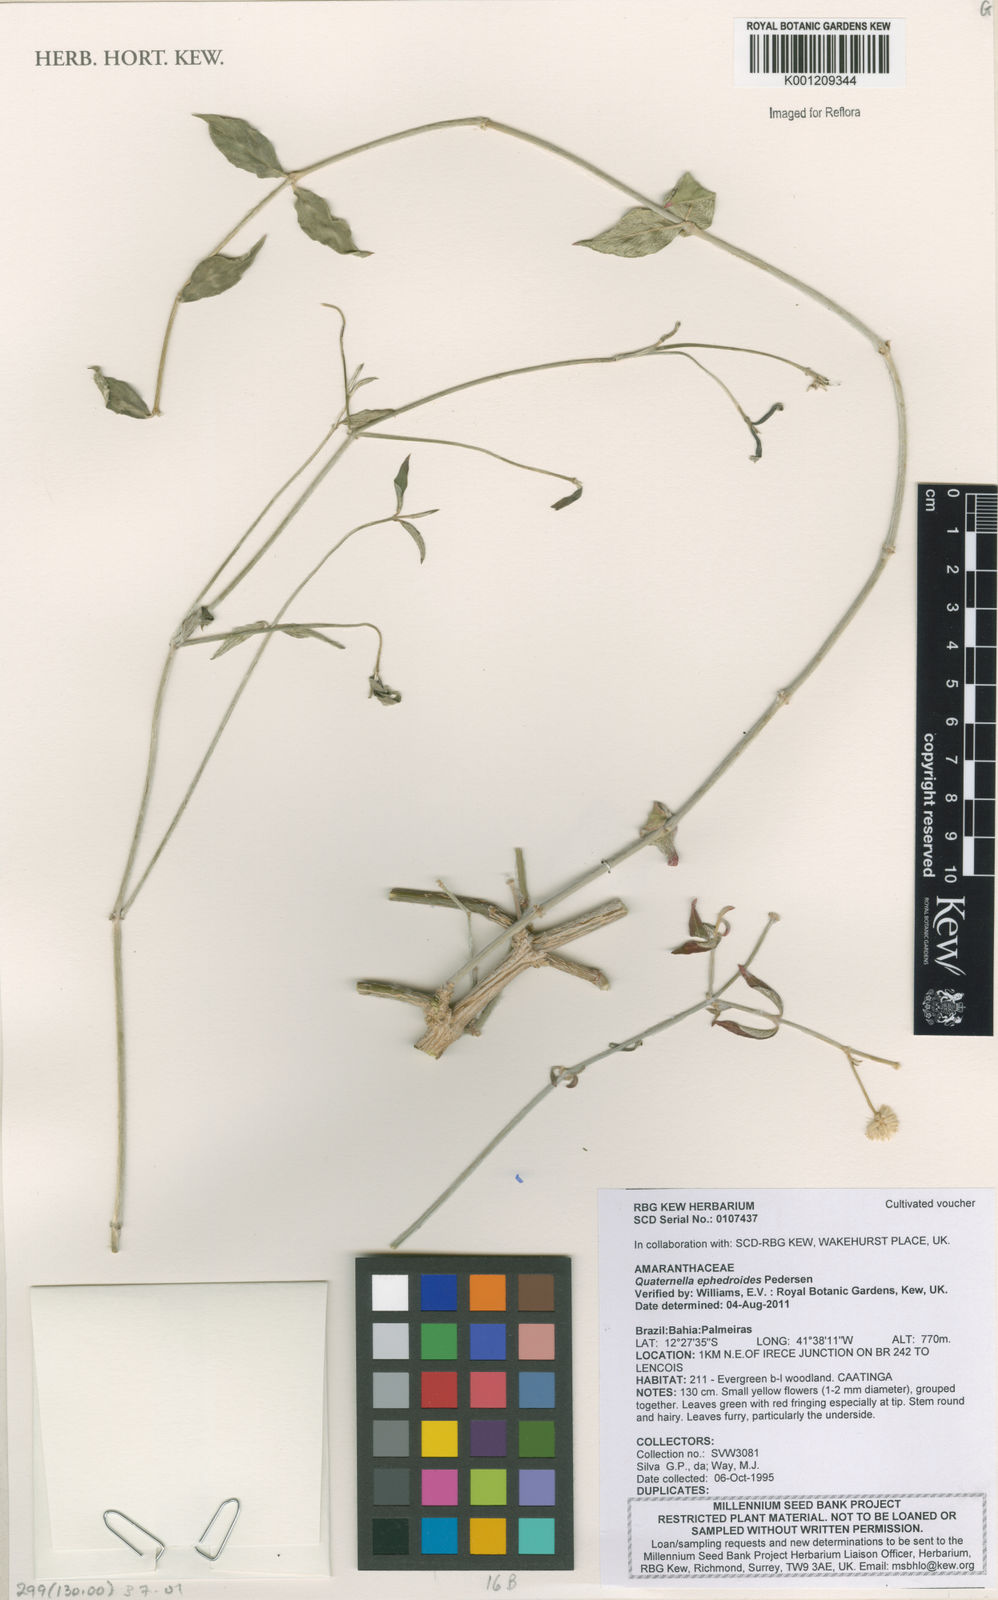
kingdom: Plantae
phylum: Tracheophyta
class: Magnoliopsida
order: Caryophyllales
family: Amaranthaceae
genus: Quaternella
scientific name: Quaternella ephedroides
